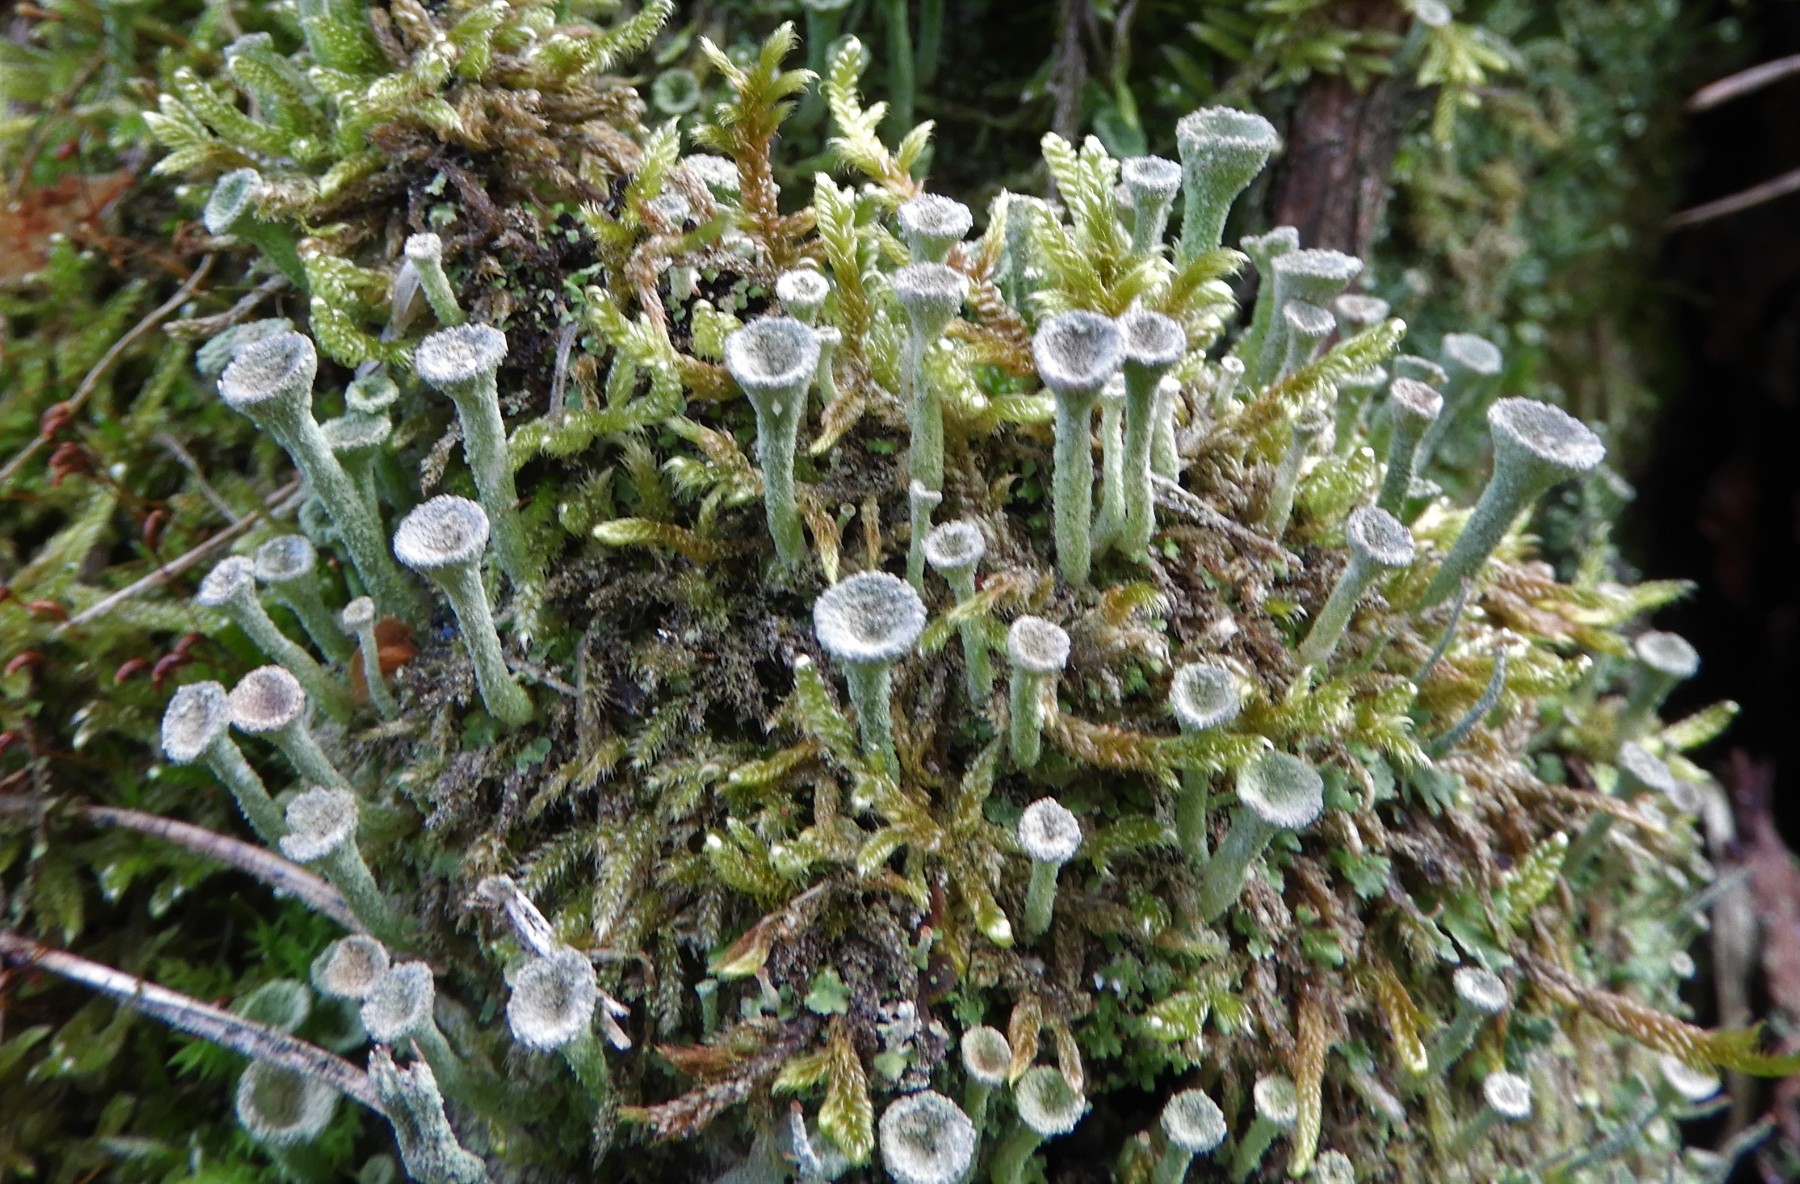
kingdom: Fungi
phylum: Ascomycota
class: Lecanoromycetes
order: Lecanorales
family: Cladoniaceae
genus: Cladonia
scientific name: Cladonia
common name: brungrøn bægerlav
